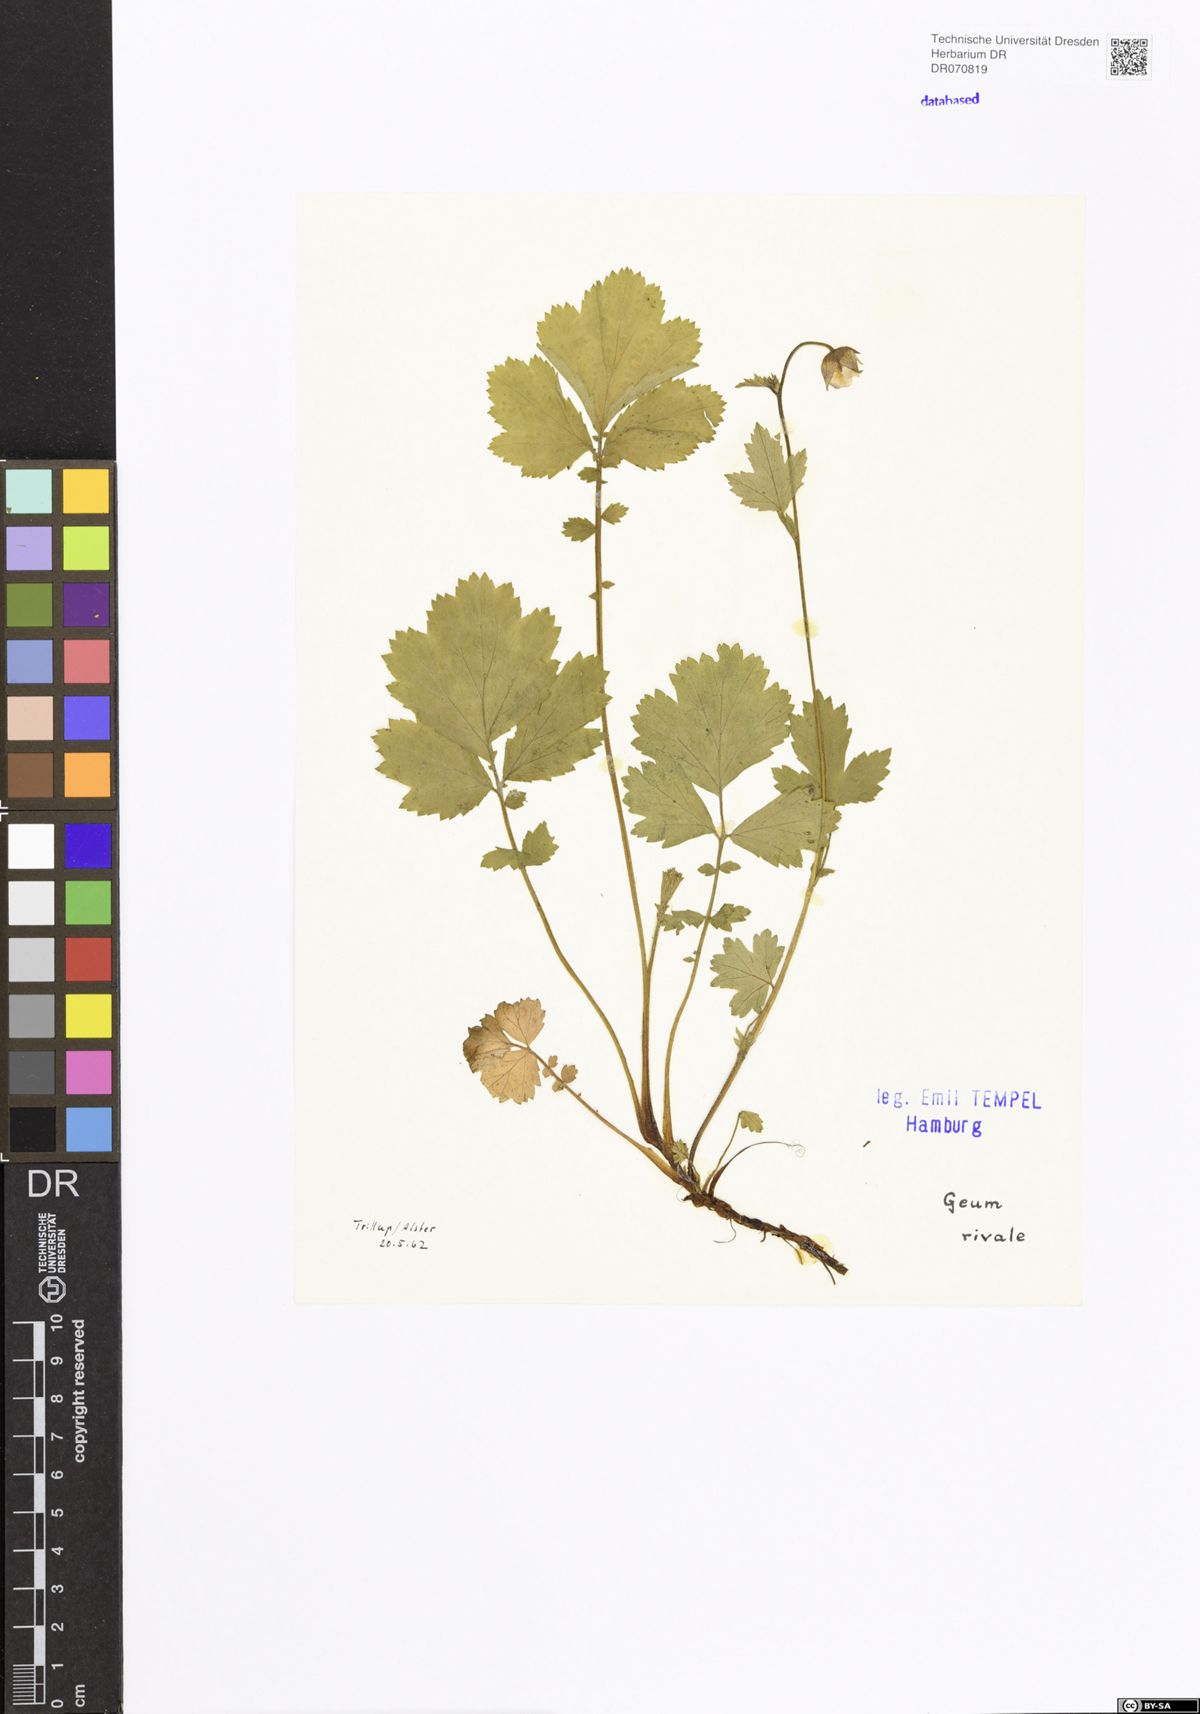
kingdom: Plantae
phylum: Tracheophyta
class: Magnoliopsida
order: Rosales
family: Rosaceae
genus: Geum
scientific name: Geum rivale
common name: Water avens
